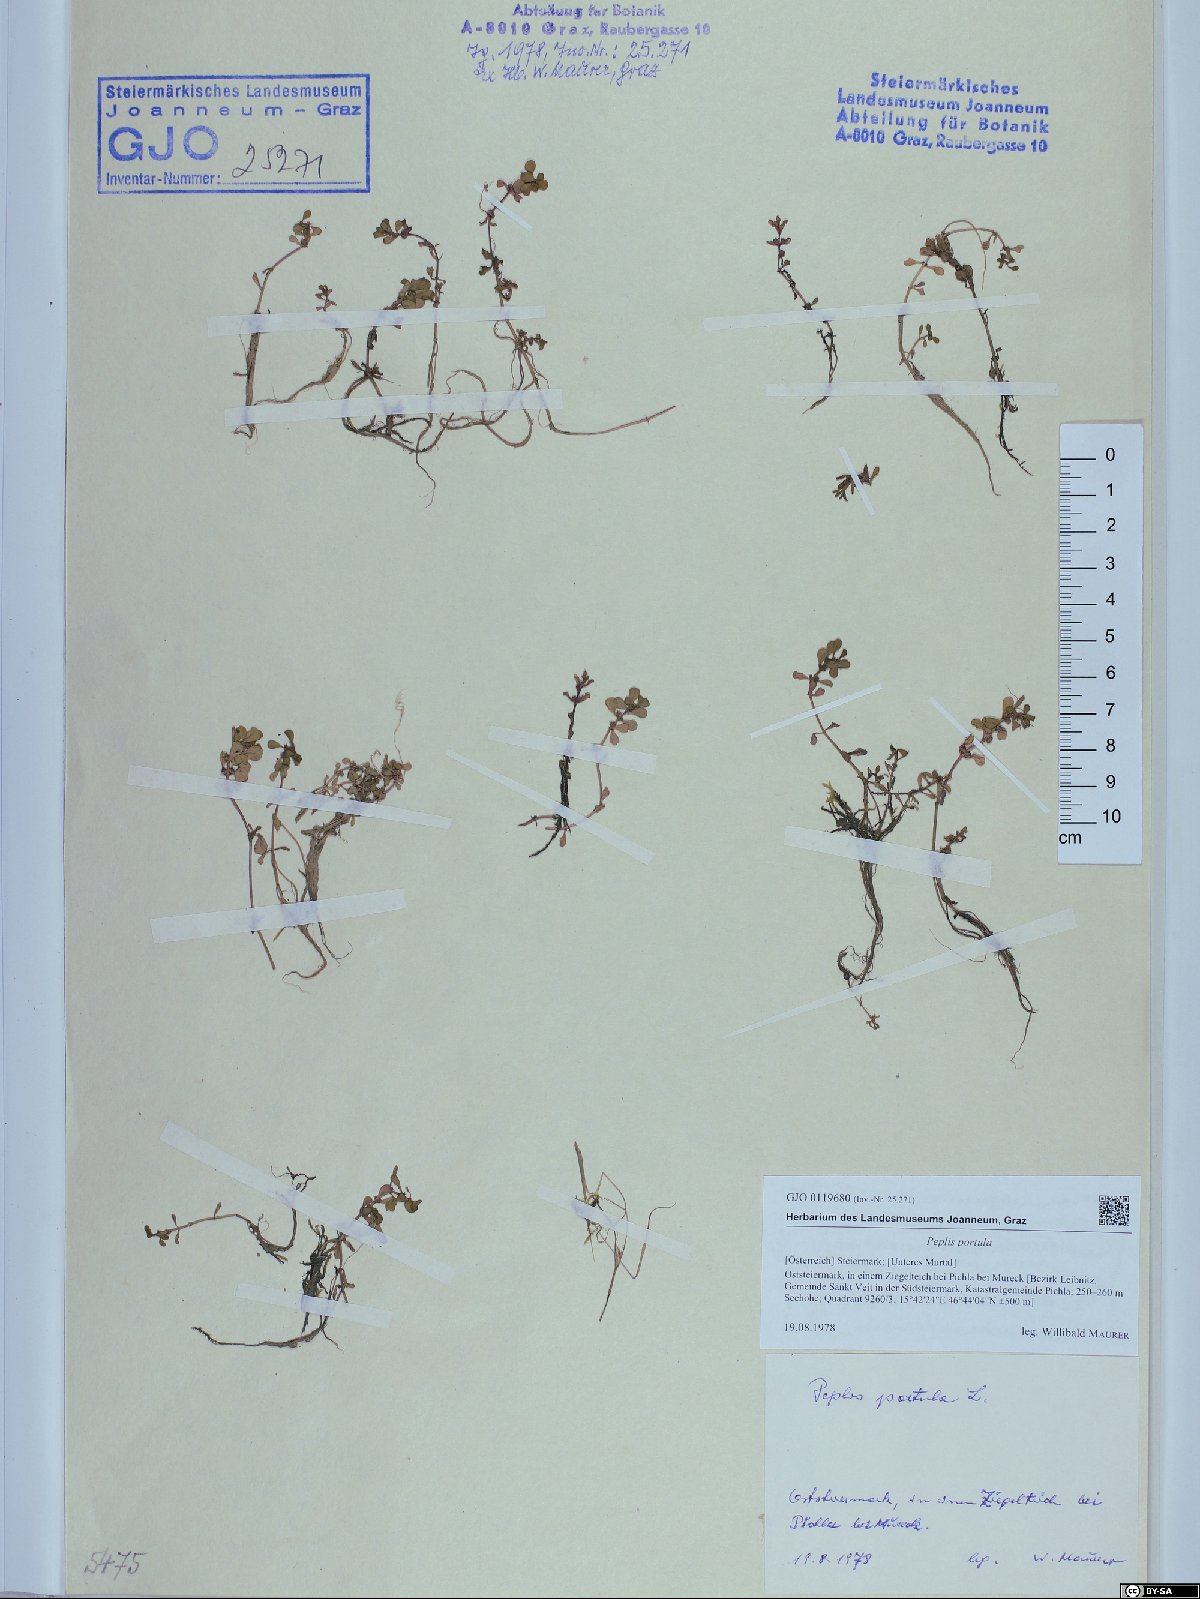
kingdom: Plantae
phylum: Tracheophyta
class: Magnoliopsida
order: Myrtales
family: Lythraceae
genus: Lythrum
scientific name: Lythrum portula
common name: Water purslane
